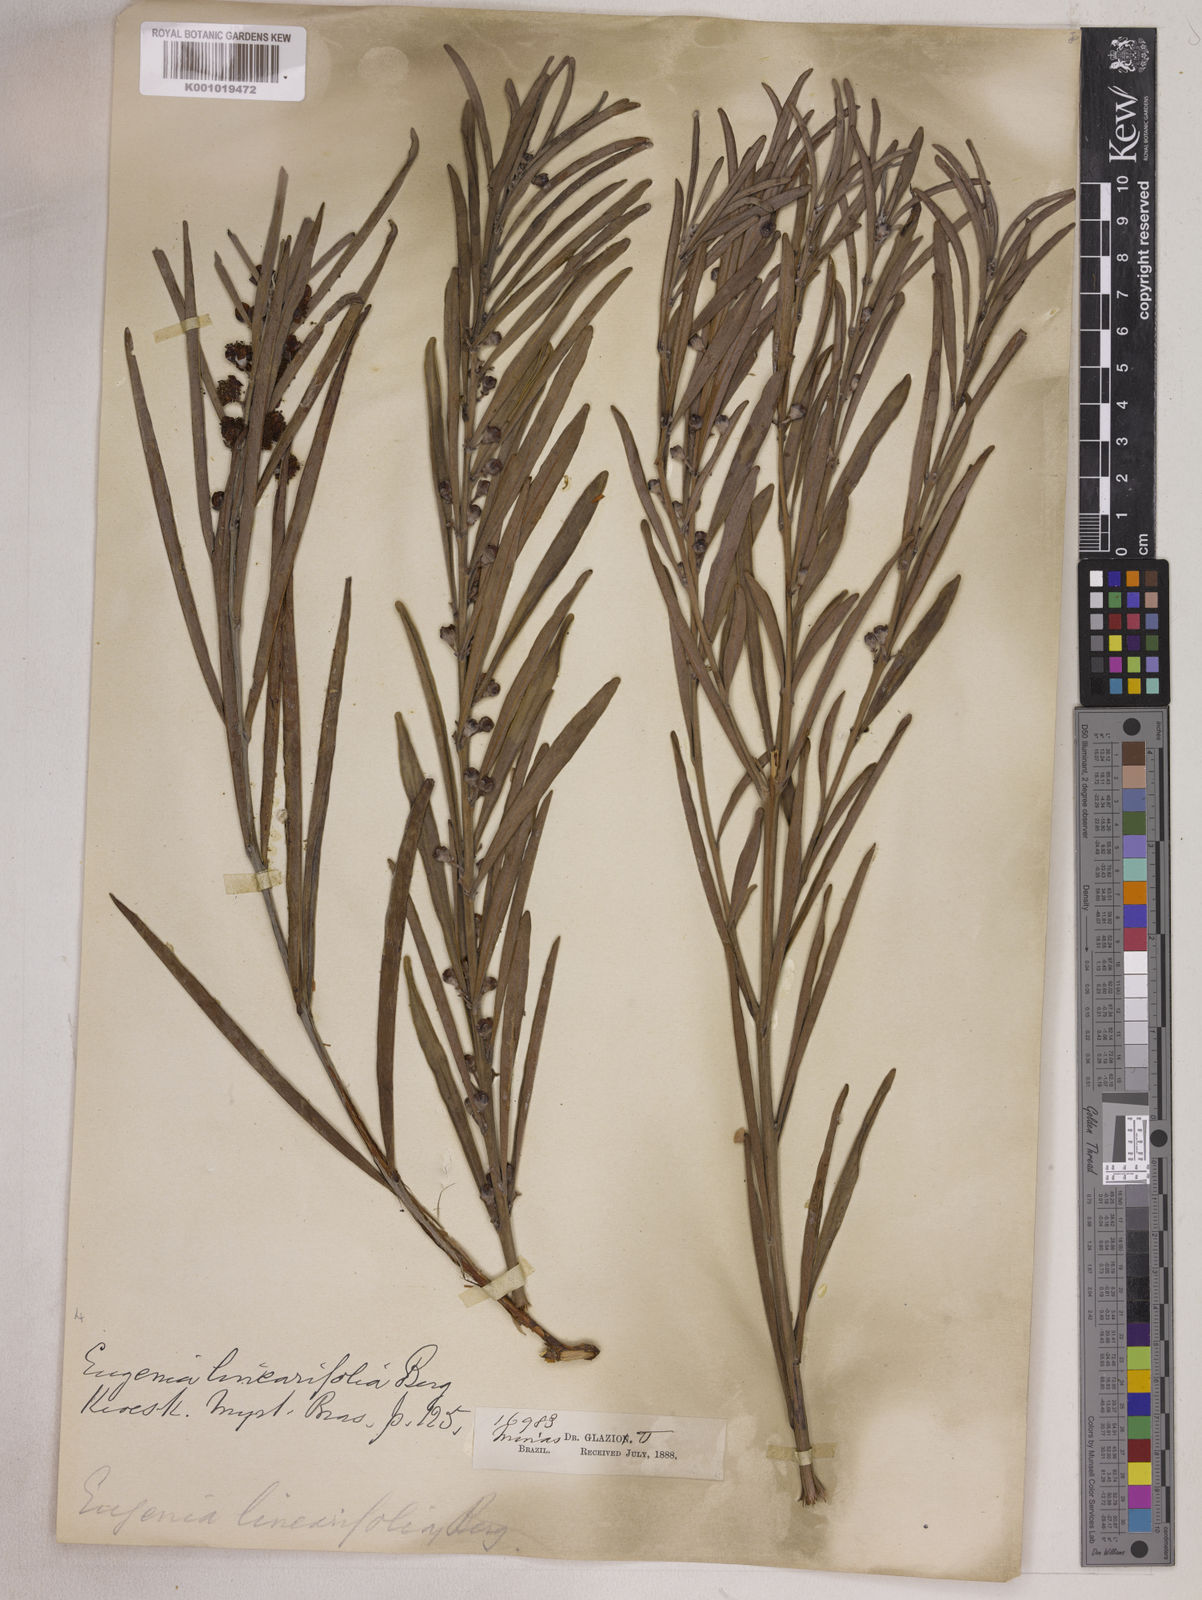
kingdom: Plantae
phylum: Tracheophyta
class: Magnoliopsida
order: Myrtales
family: Myrtaceae
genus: Eugenia
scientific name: Eugenia punicifolia
